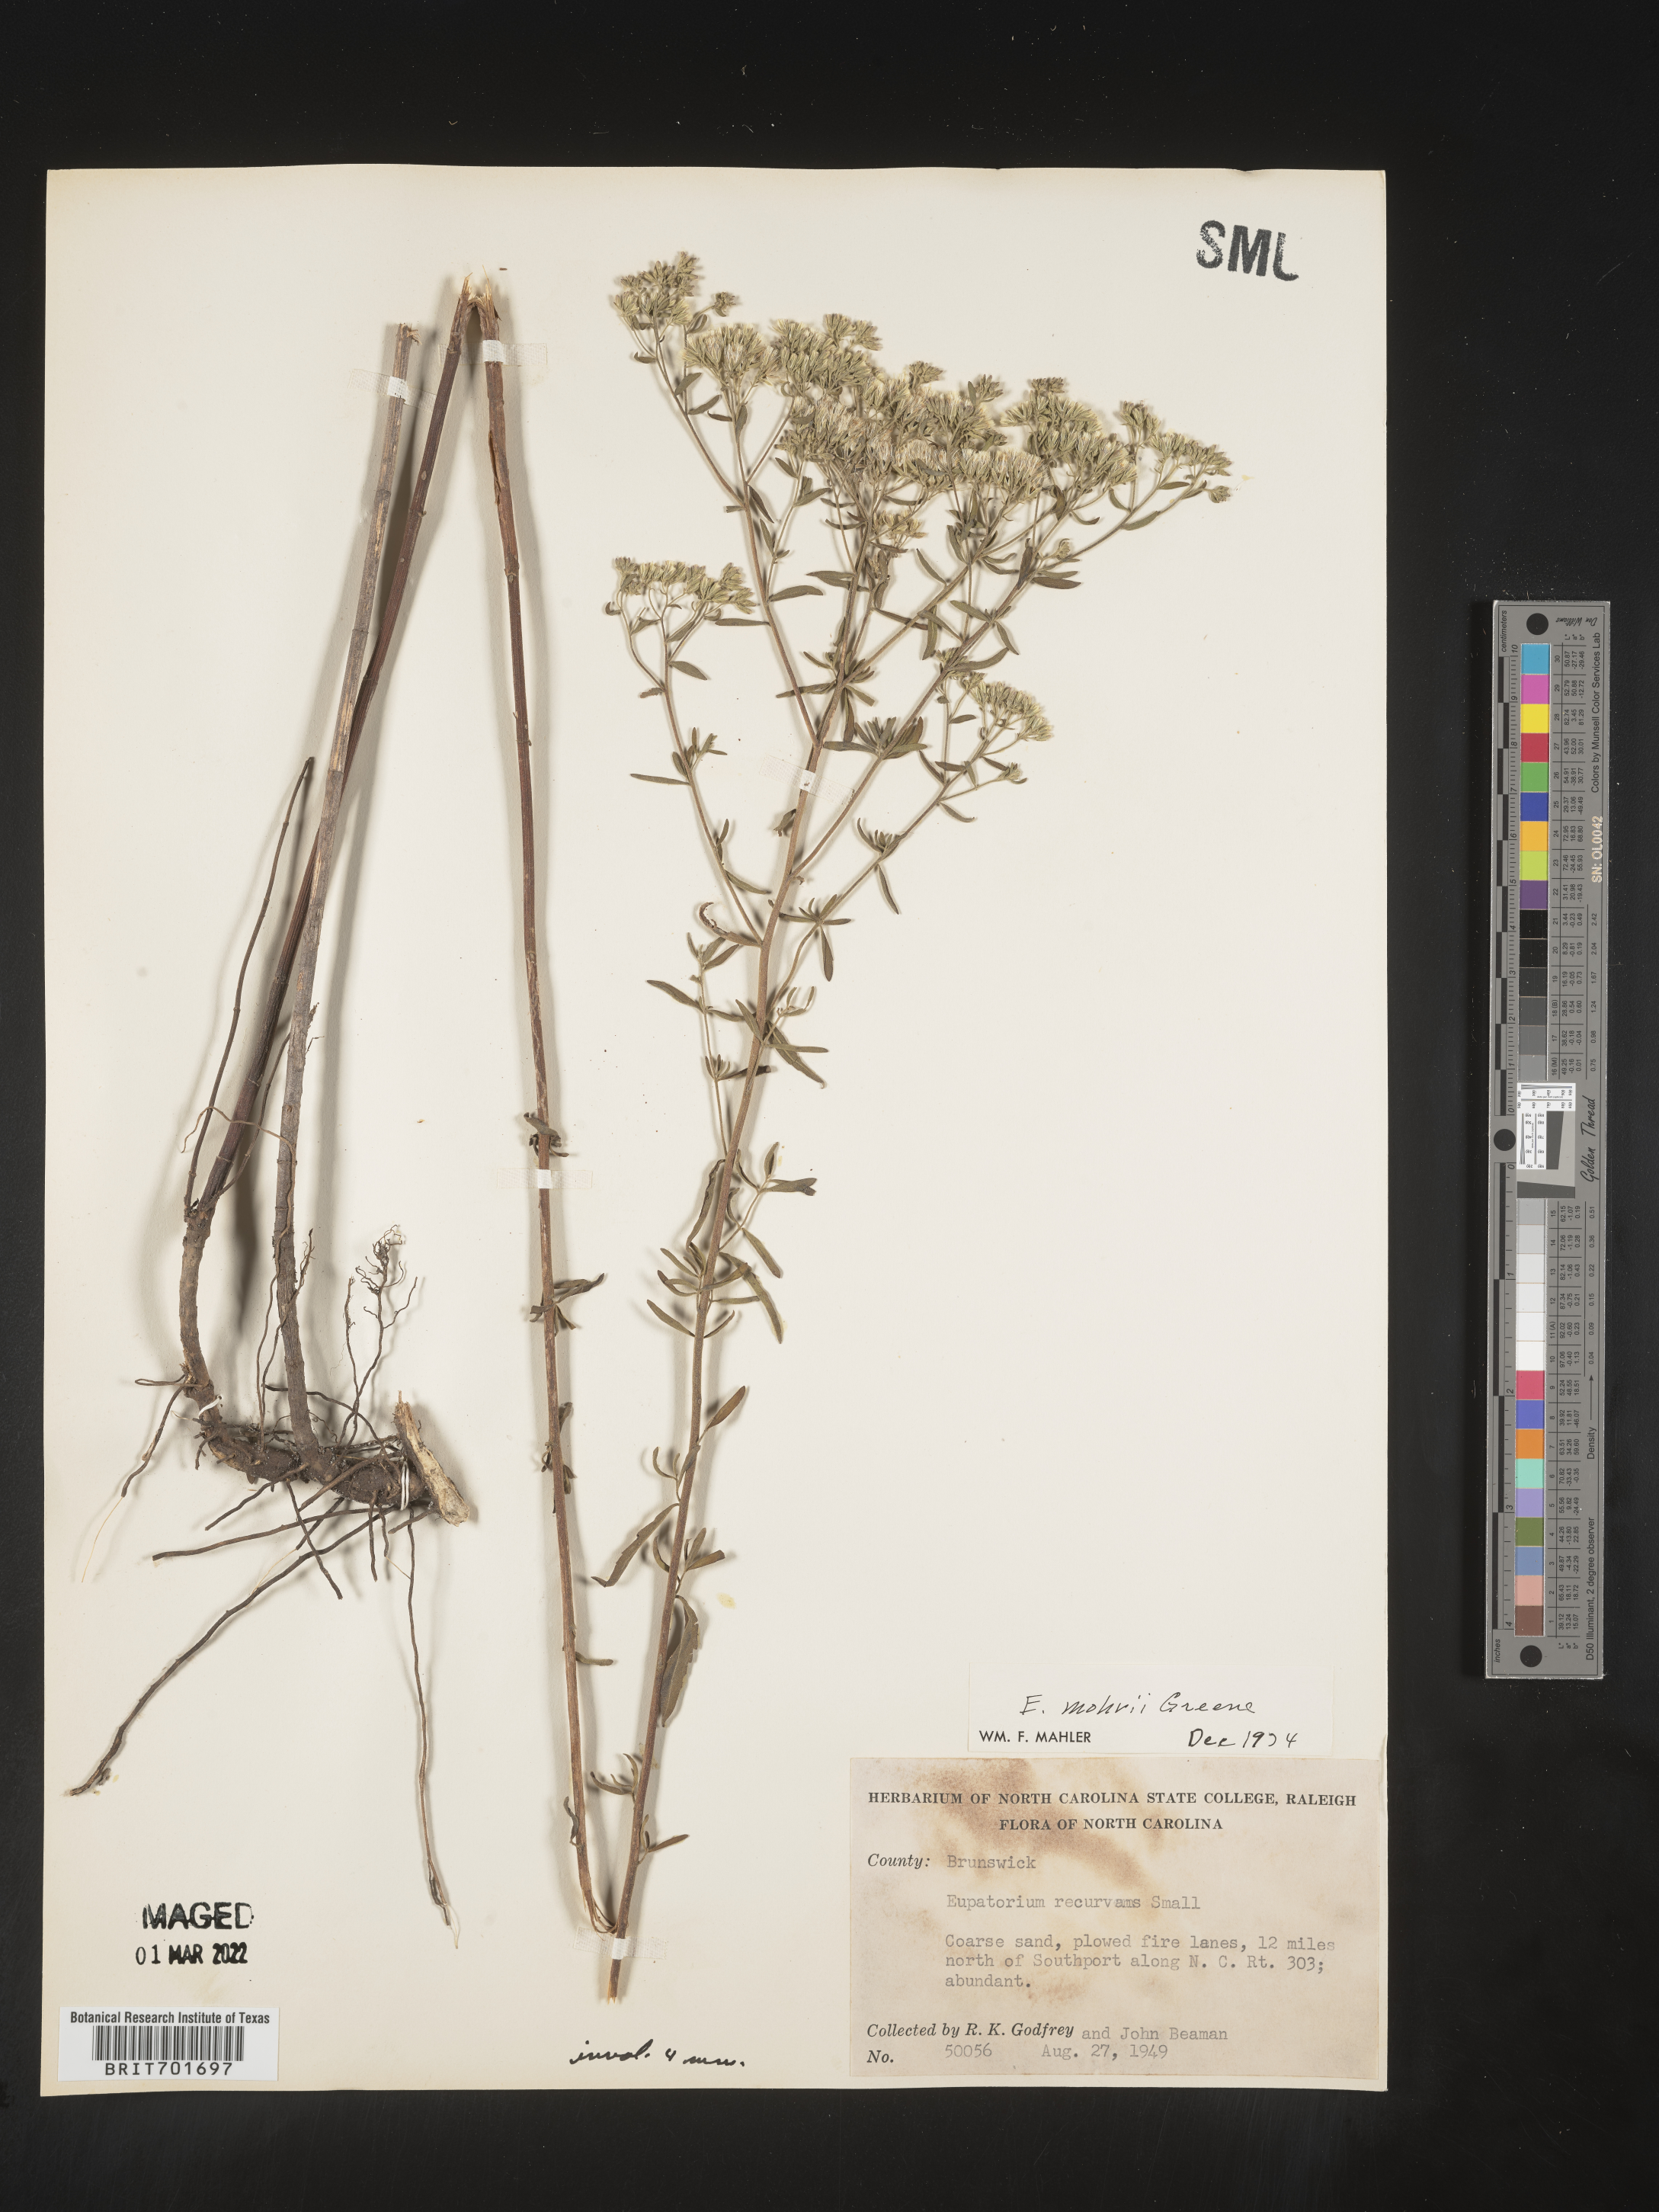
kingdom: Plantae
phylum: Tracheophyta
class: Magnoliopsida
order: Asterales
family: Asteraceae
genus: Eupatorium
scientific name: Eupatorium mohrii
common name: Mohr's thoroughwort
